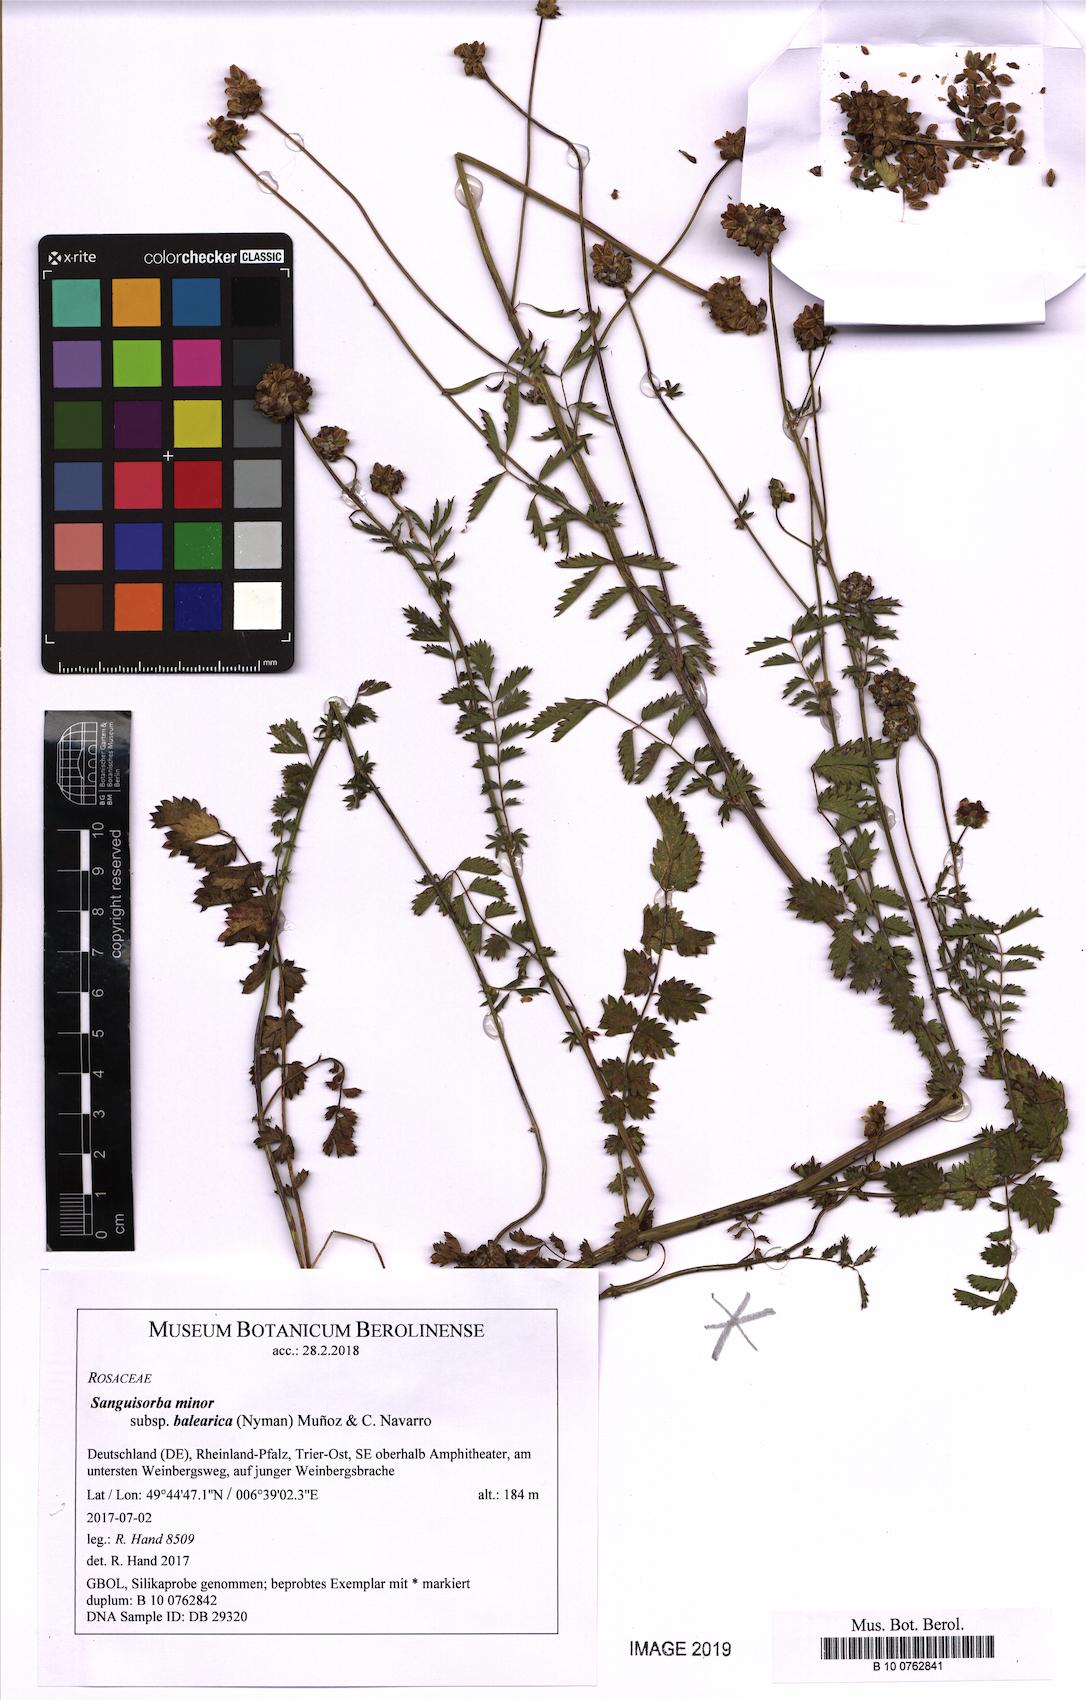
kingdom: Plantae
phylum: Tracheophyta
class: Magnoliopsida
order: Rosales
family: Rosaceae
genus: Poterium
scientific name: Poterium sanguisorba
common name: Salad burnet
